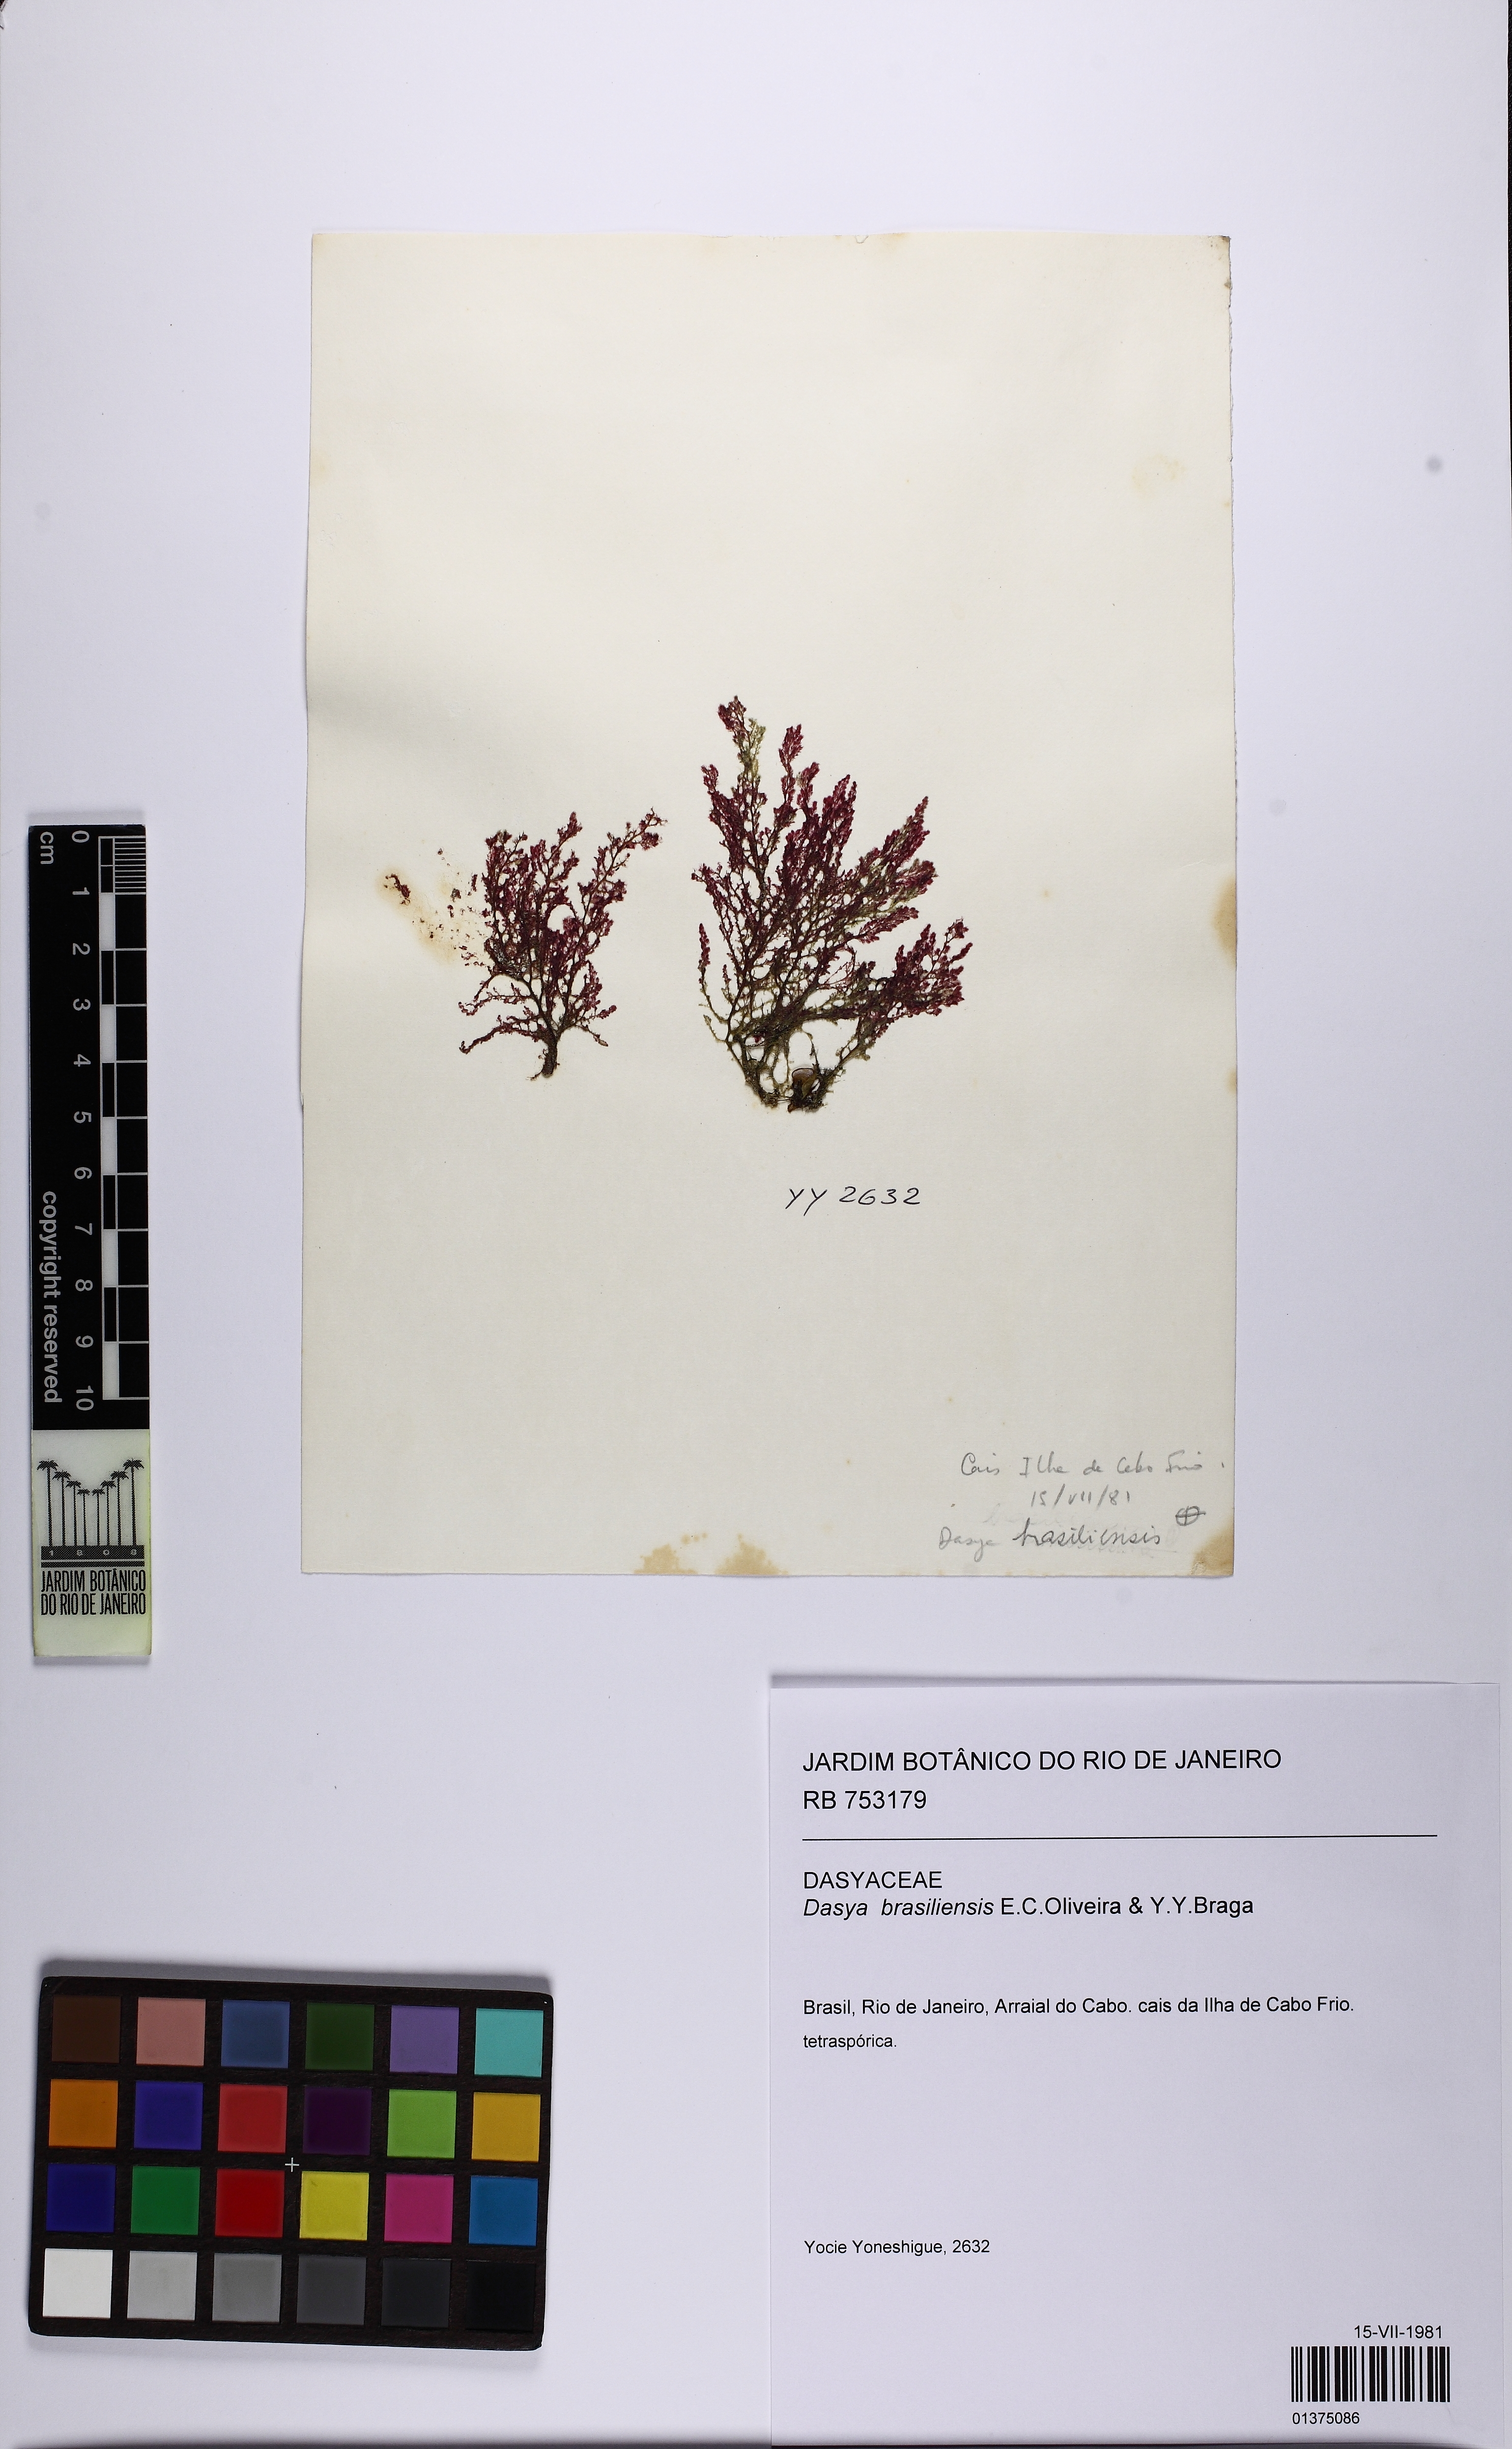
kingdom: Plantae
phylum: Rhodophyta
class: Florideophyceae
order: Ceramiales
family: Dasyaceae
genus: Dasya
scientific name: Dasya brasiliensis
